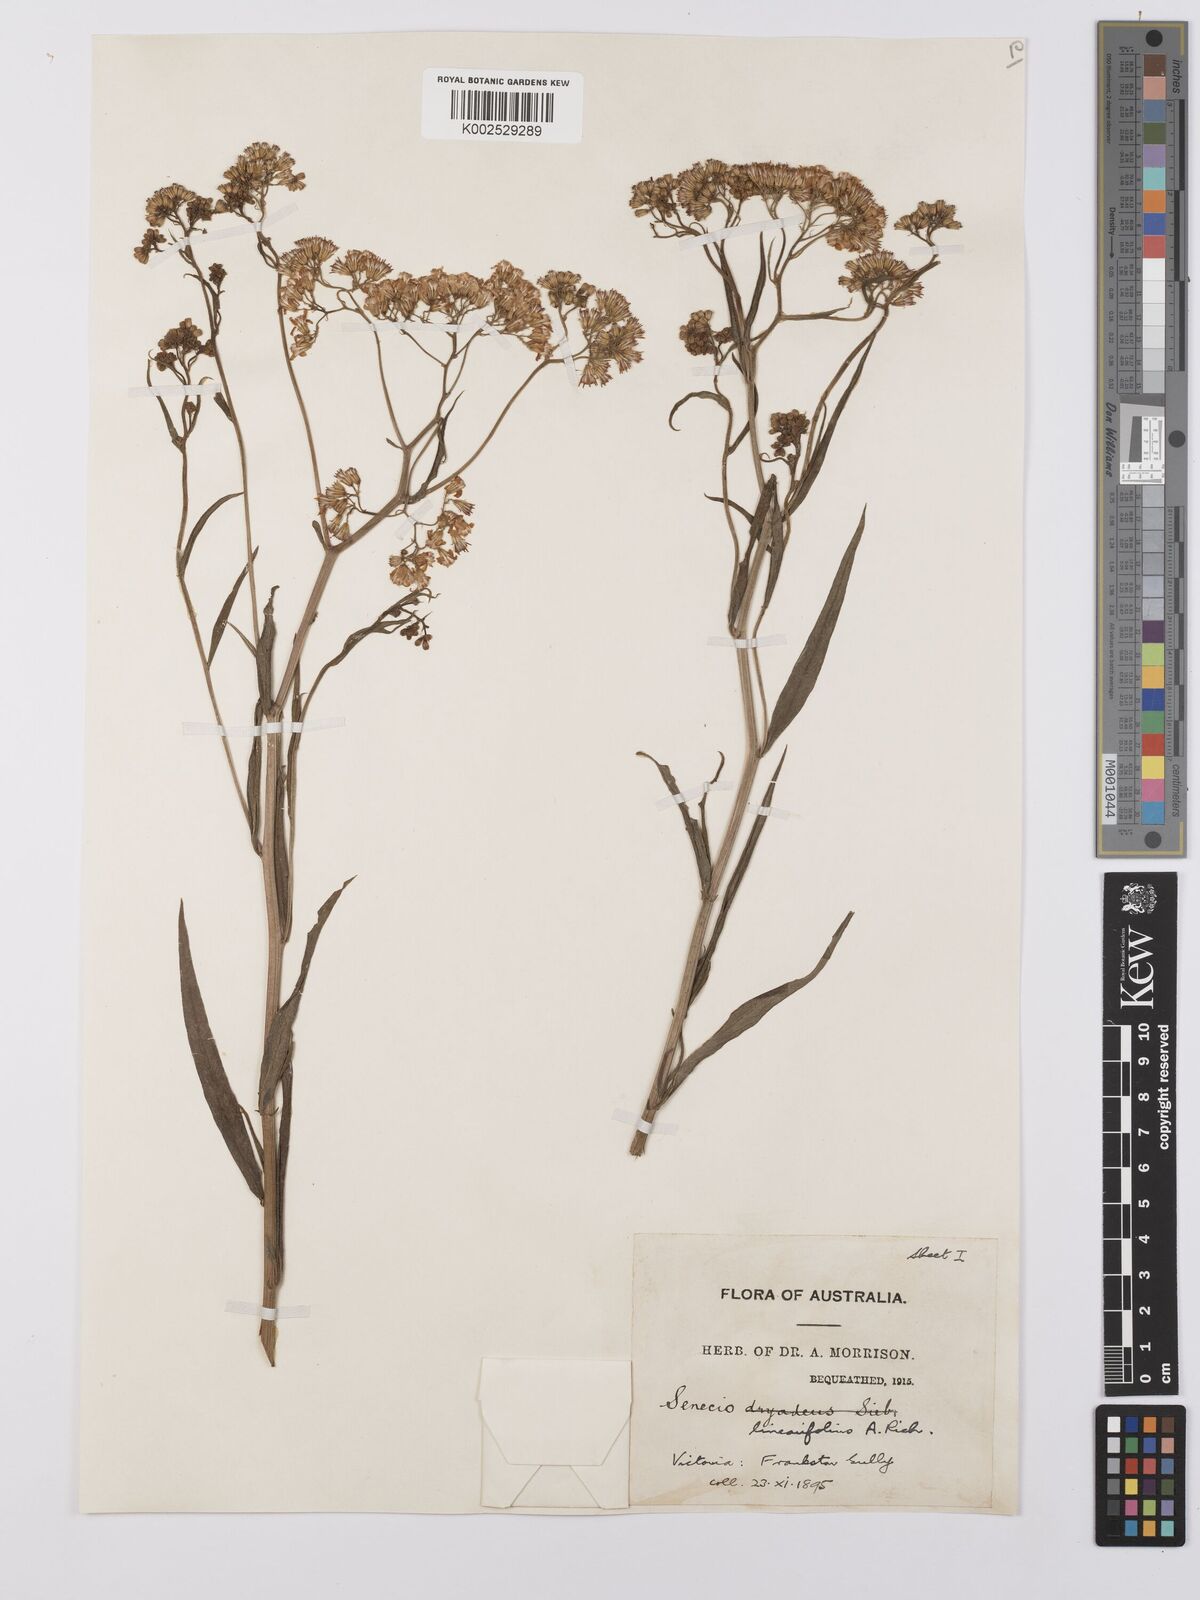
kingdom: Plantae
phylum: Tracheophyta
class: Magnoliopsida
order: Asterales
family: Asteraceae
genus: Senecio
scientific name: Senecio
